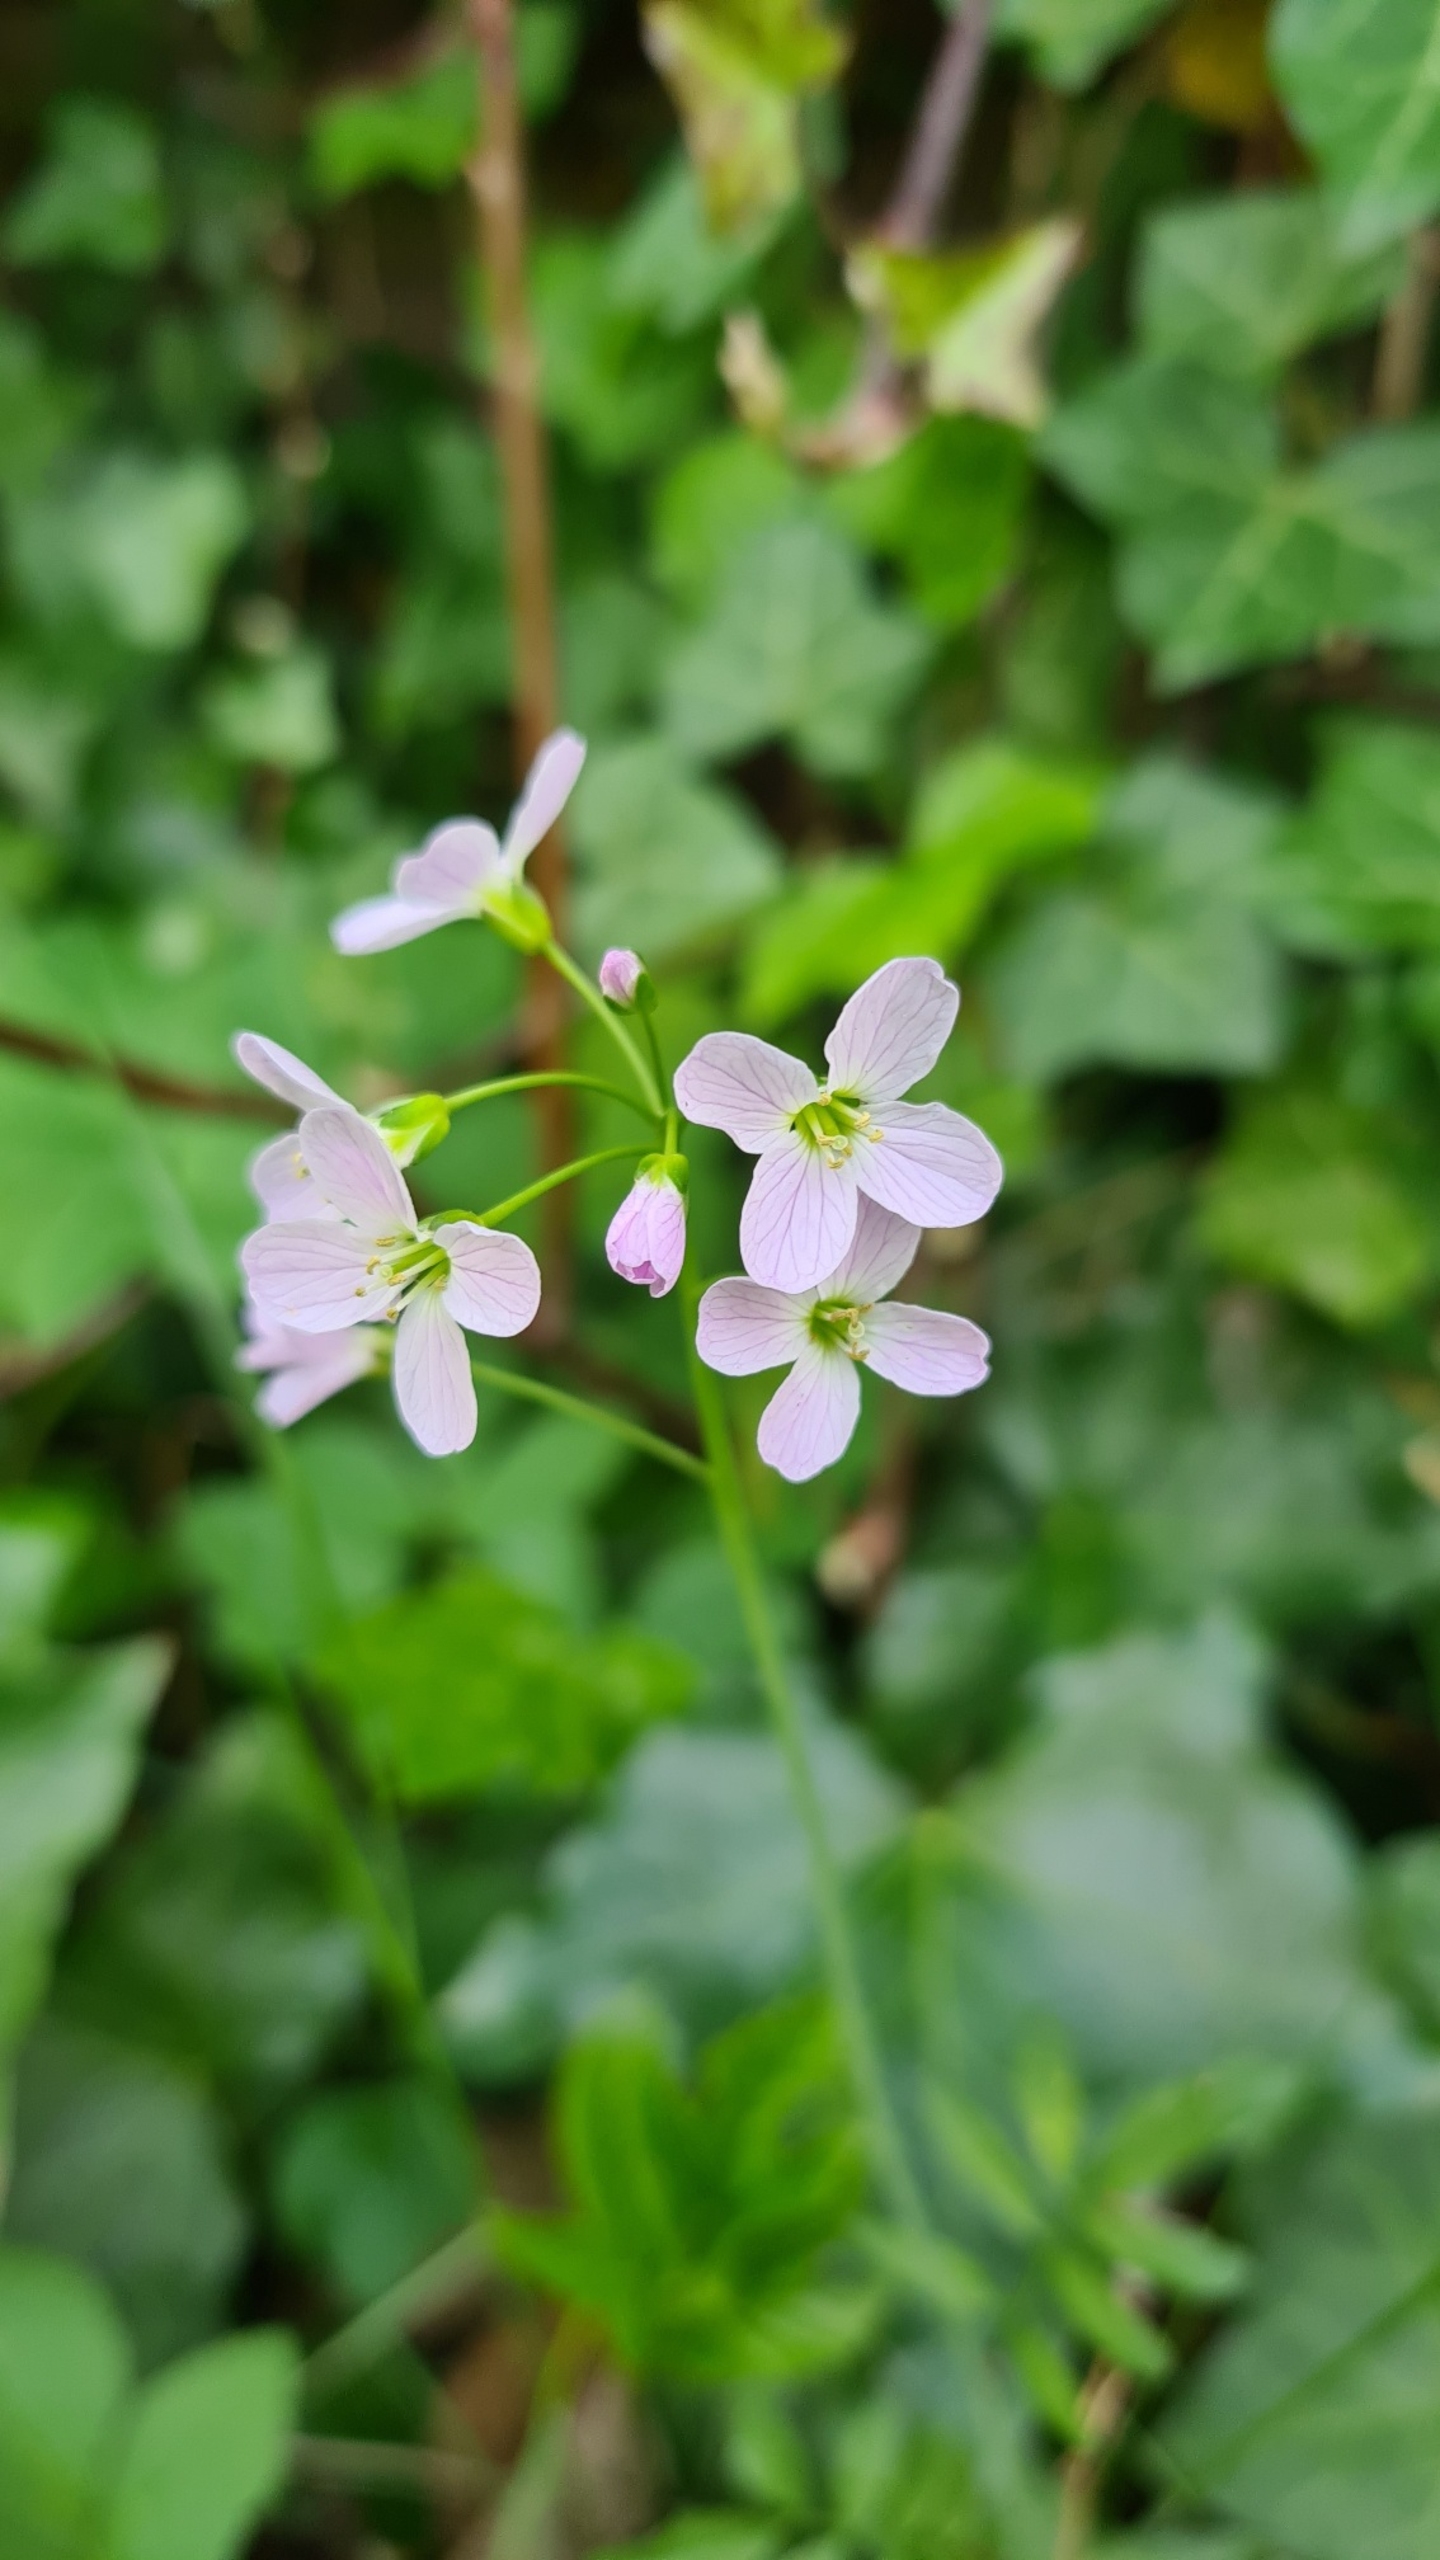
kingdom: Plantae
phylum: Tracheophyta
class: Magnoliopsida
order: Brassicales
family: Brassicaceae
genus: Cardamine
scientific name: Cardamine pratensis
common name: Engkarse
